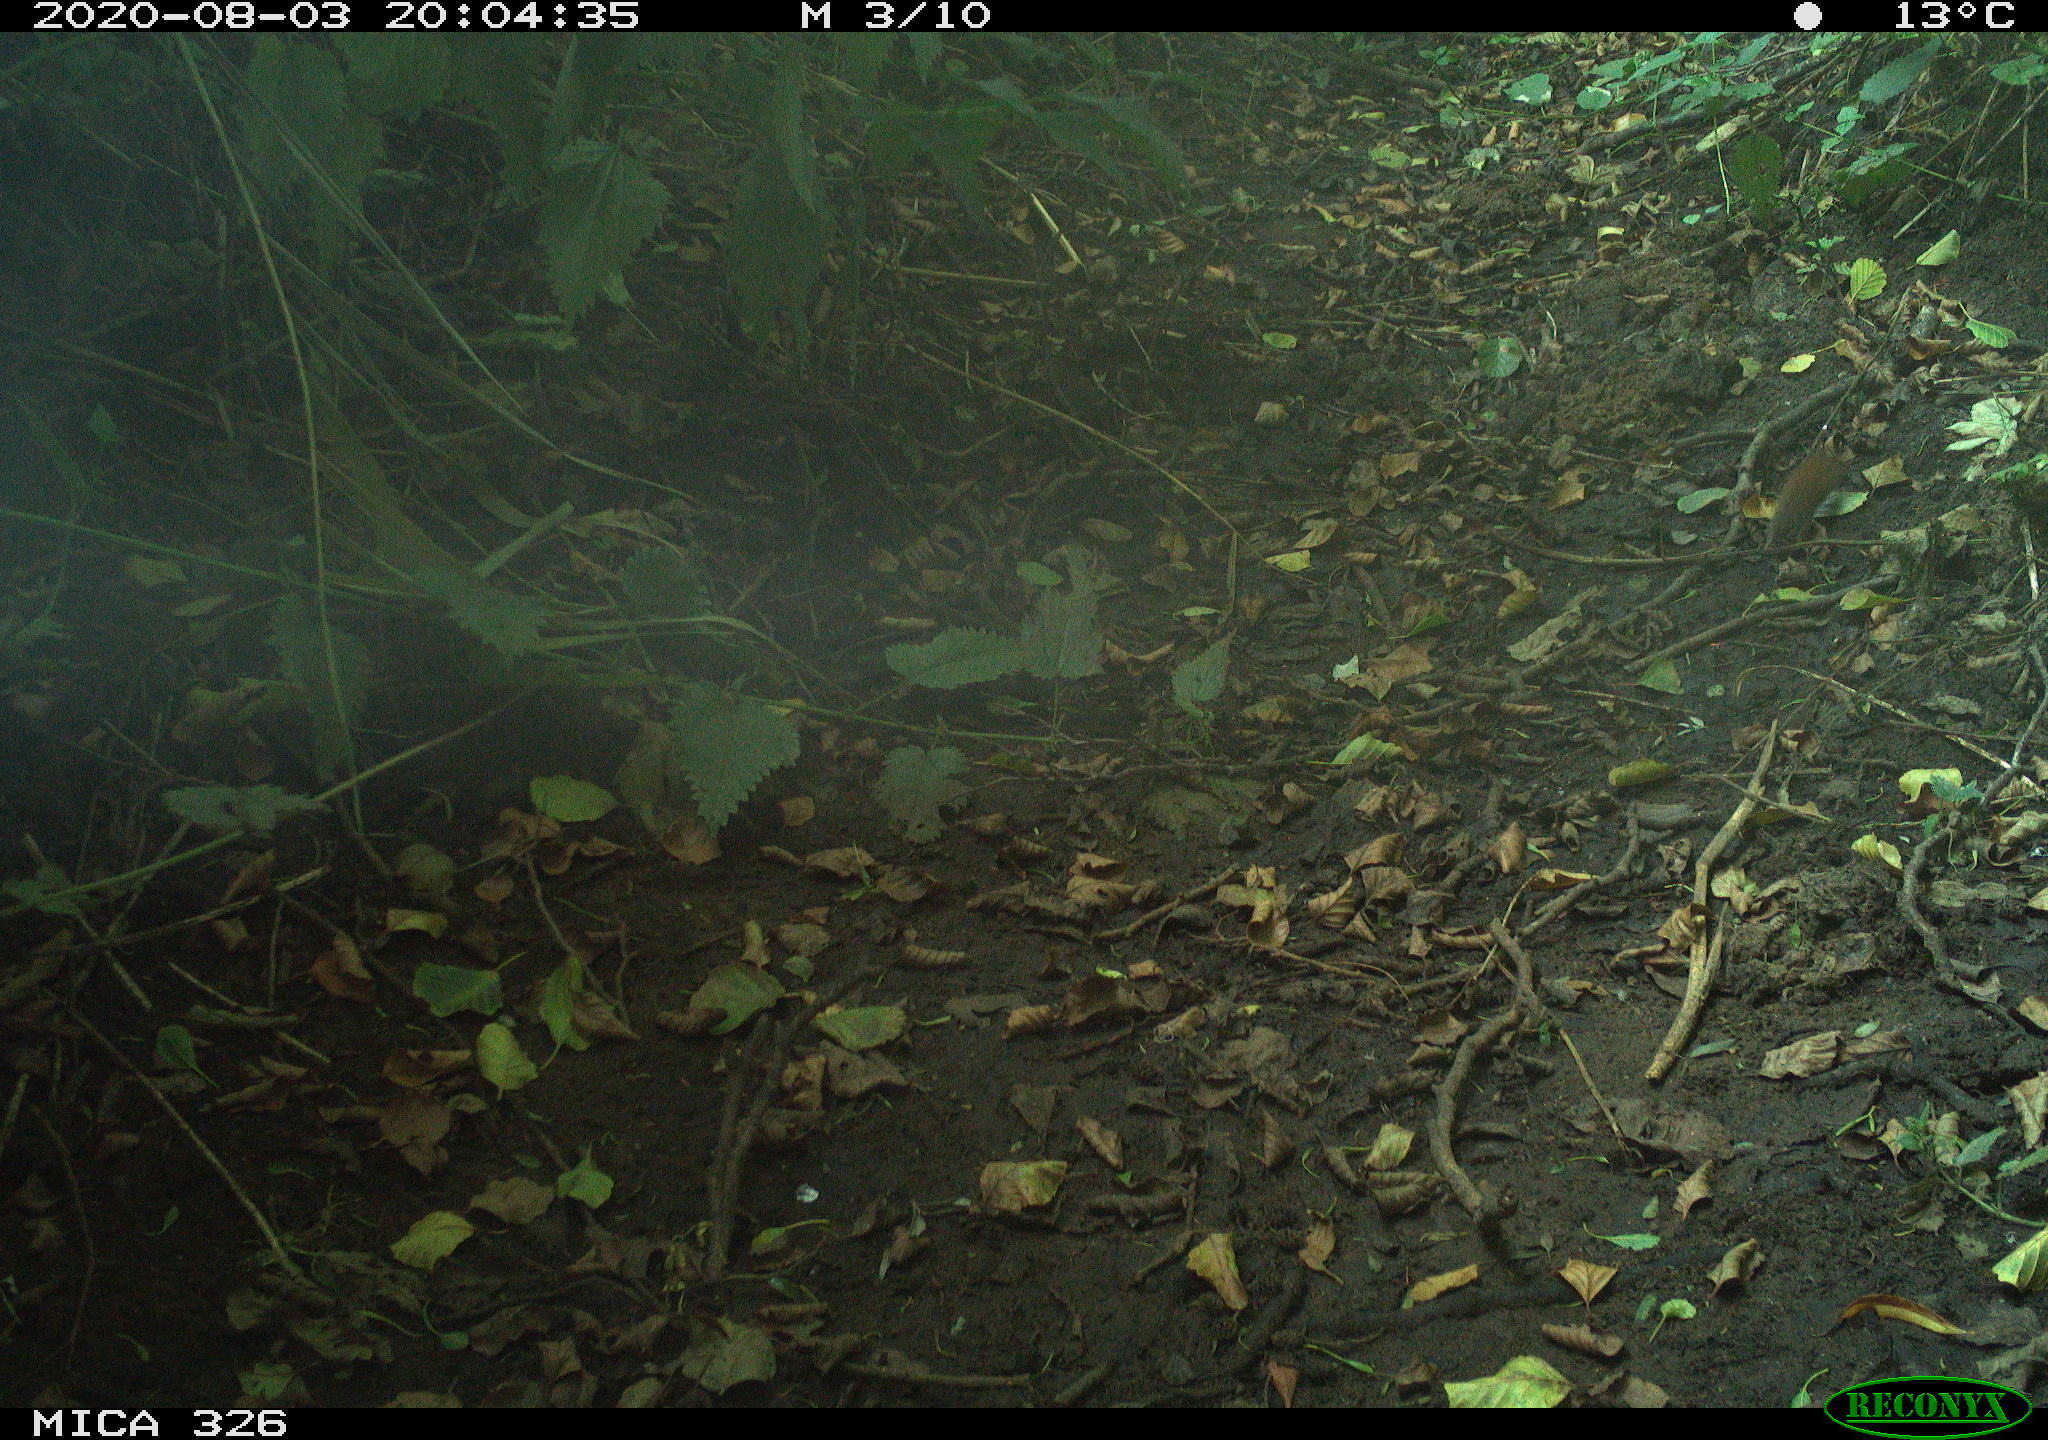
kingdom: Animalia
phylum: Chordata
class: Mammalia
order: Rodentia
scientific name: Rodentia
